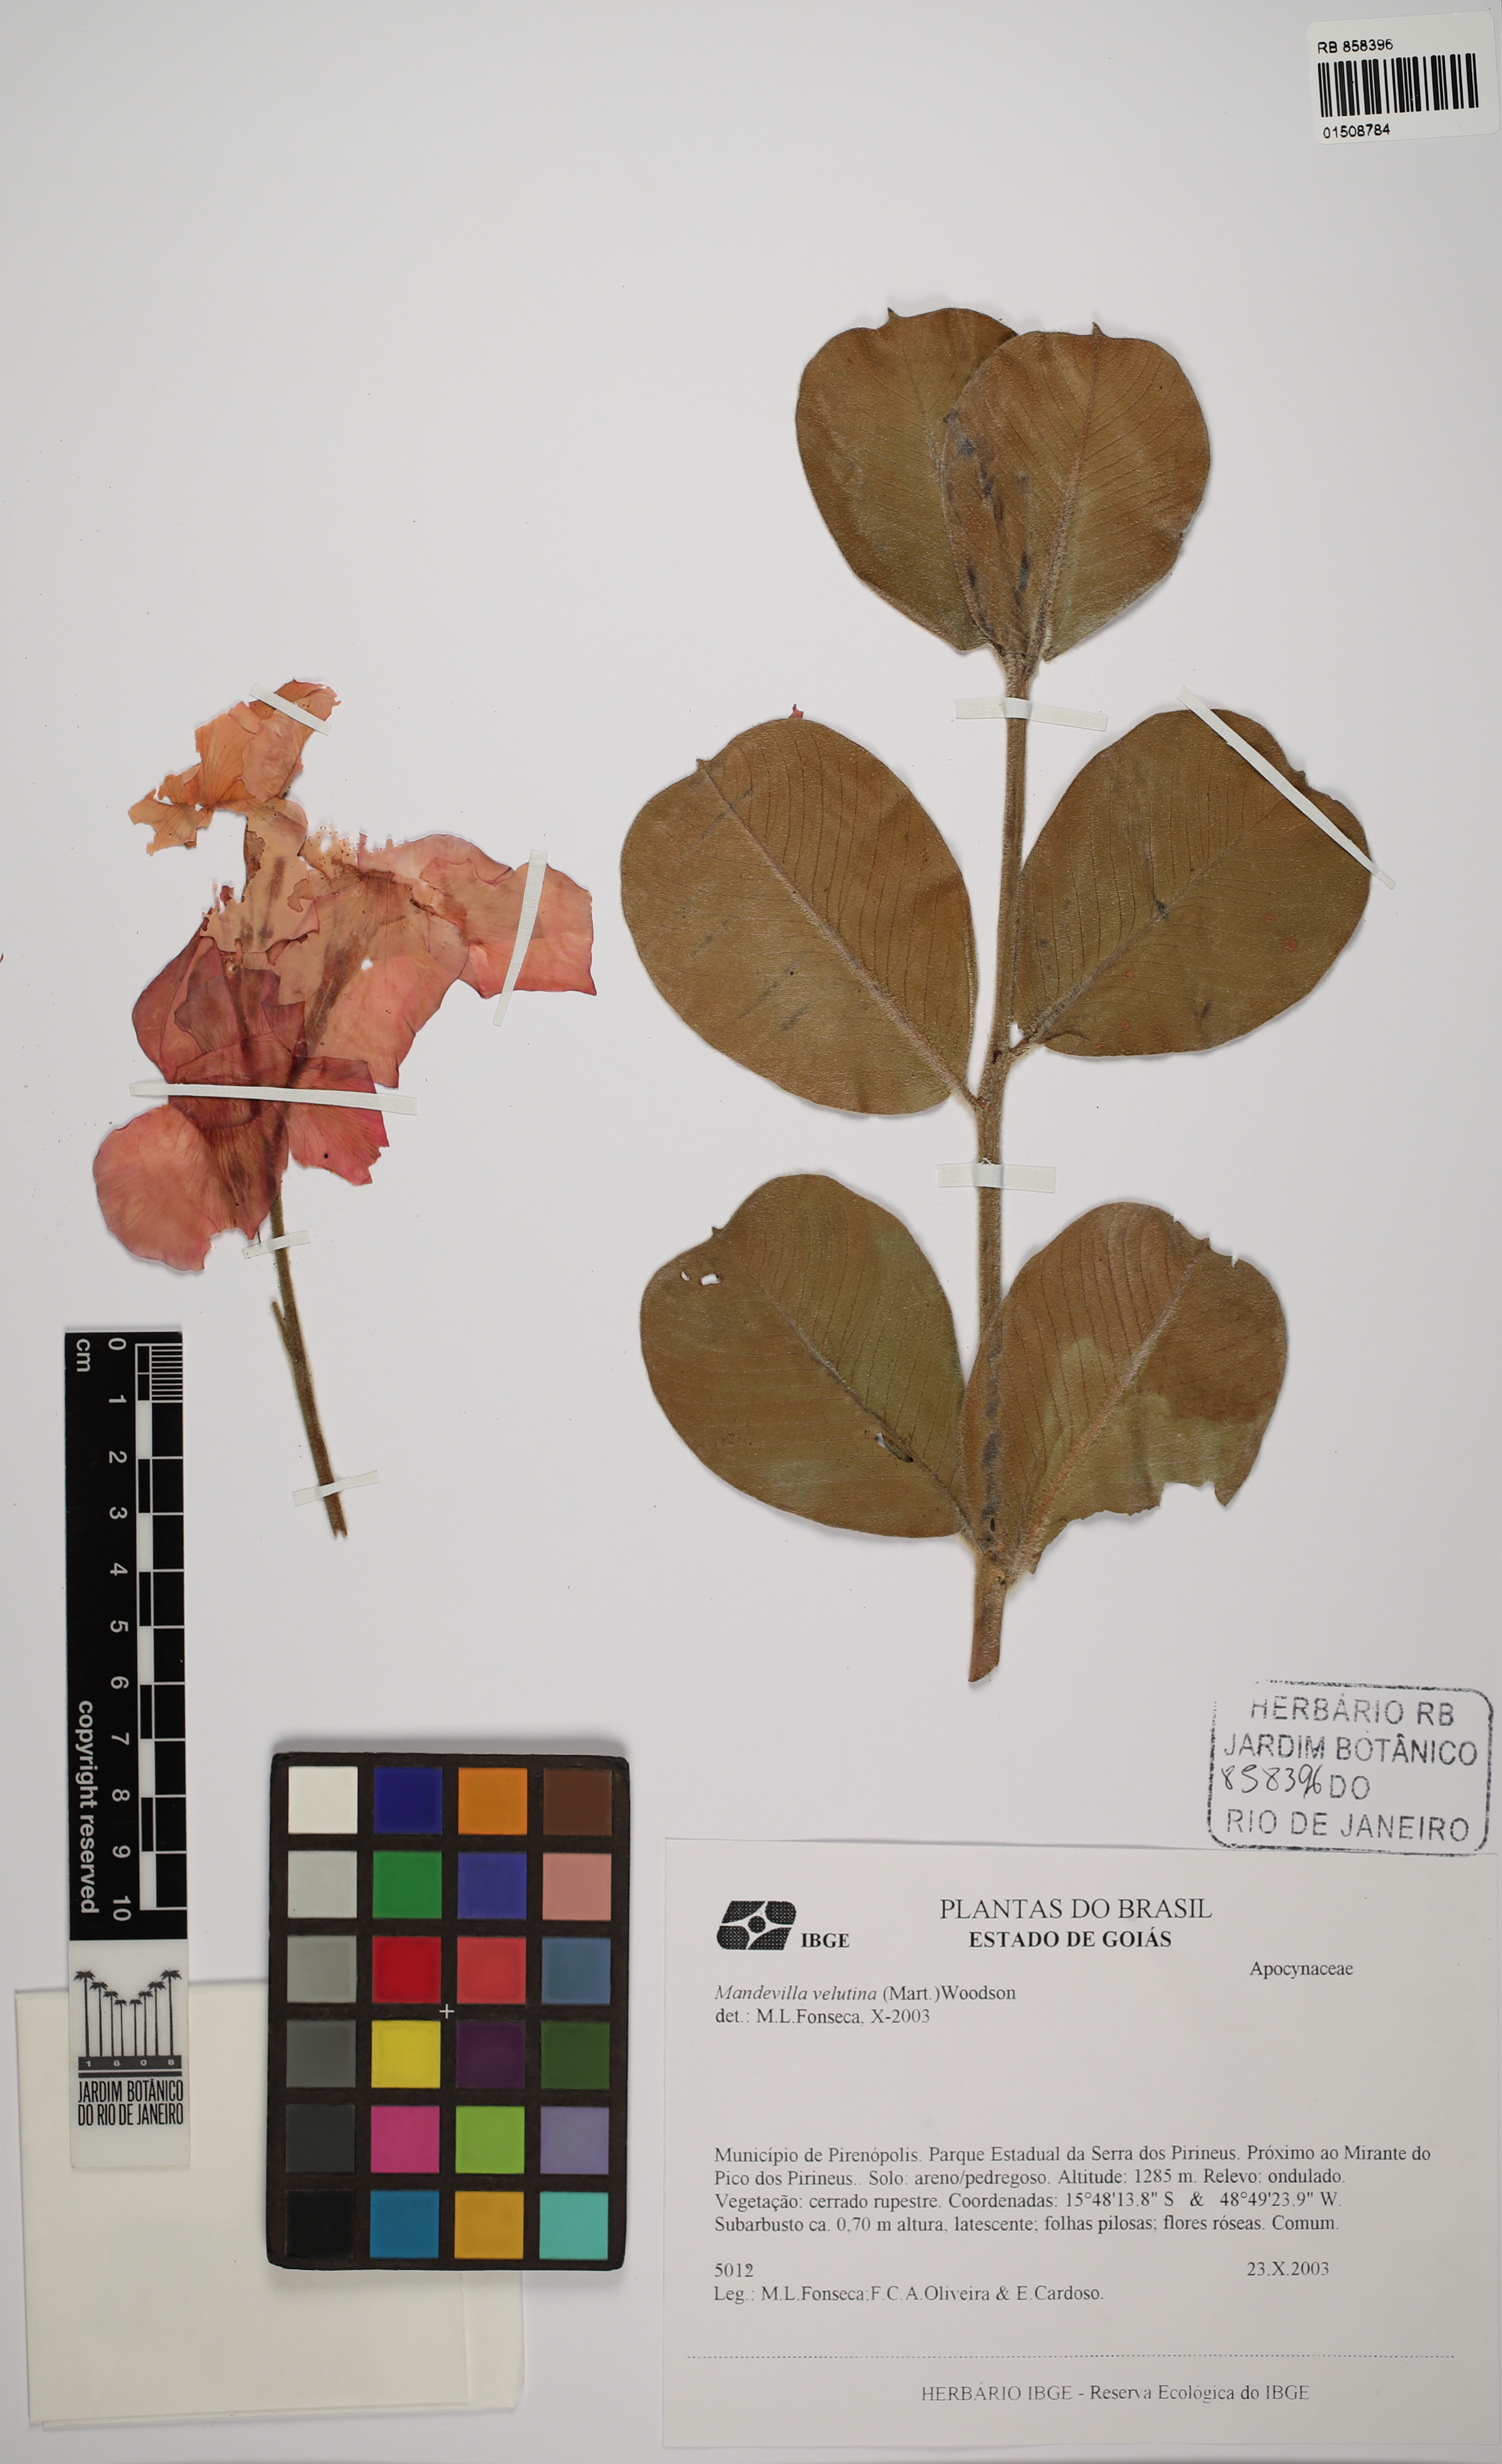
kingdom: Plantae
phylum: Tracheophyta
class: Magnoliopsida
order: Gentianales
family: Apocynaceae
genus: Echites
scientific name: Echites panduratus
